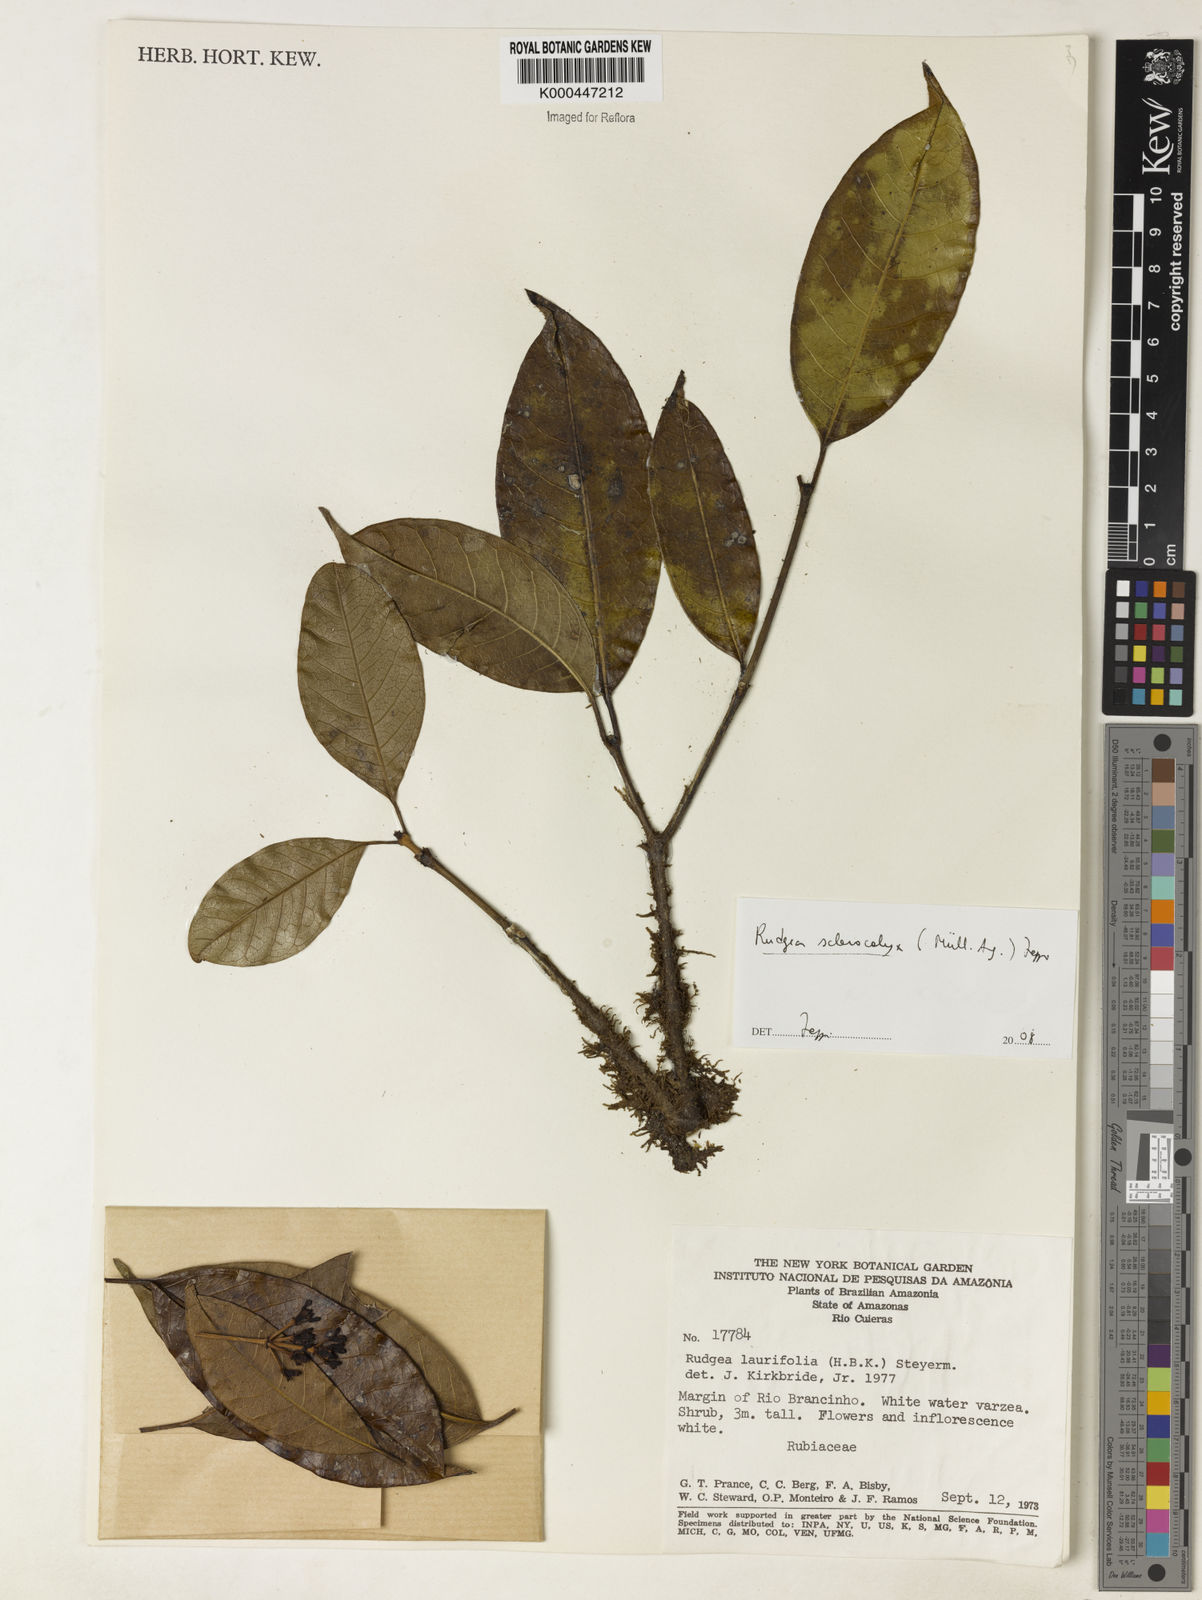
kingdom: Plantae
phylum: Tracheophyta
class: Magnoliopsida
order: Gentianales
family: Rubiaceae
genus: Rudgea
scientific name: Rudgea sclerocalyx
